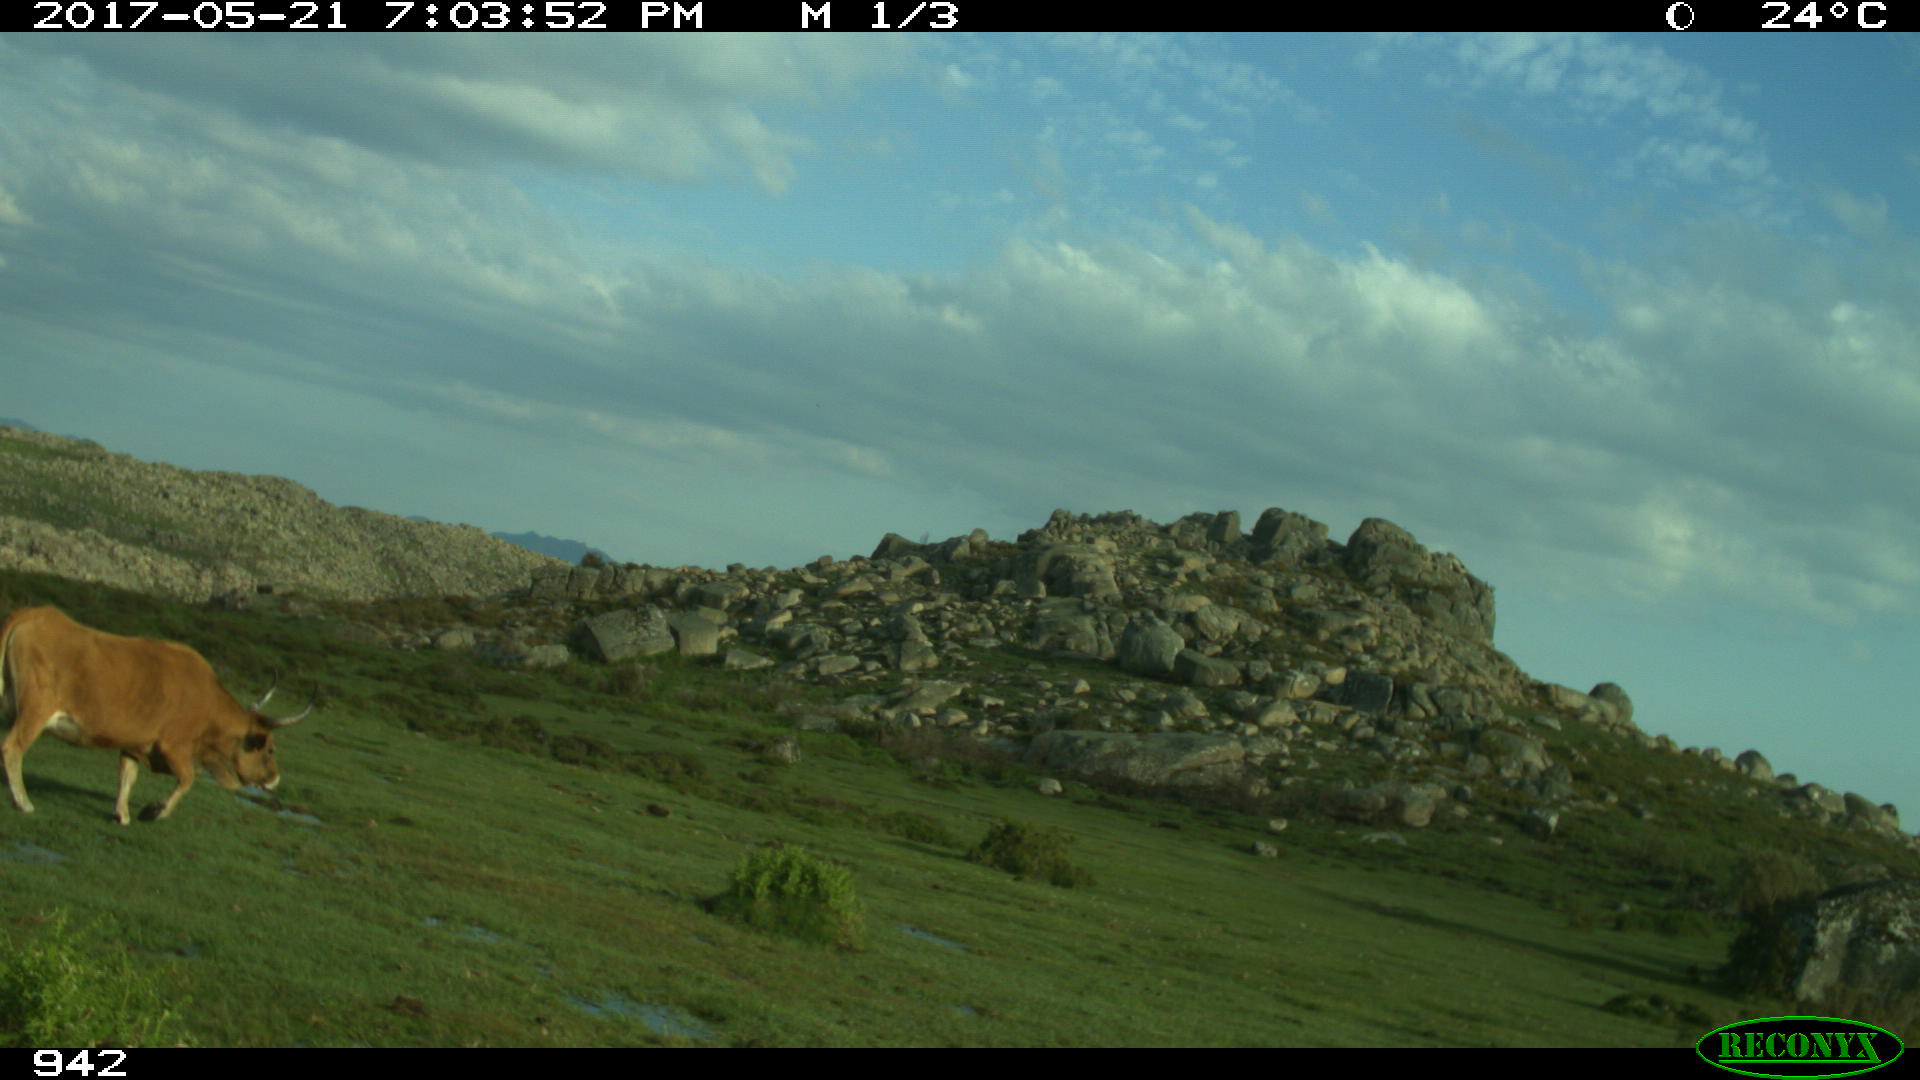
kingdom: Animalia
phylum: Chordata
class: Mammalia
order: Artiodactyla
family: Bovidae
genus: Bos
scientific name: Bos taurus
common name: Domesticated cattle
